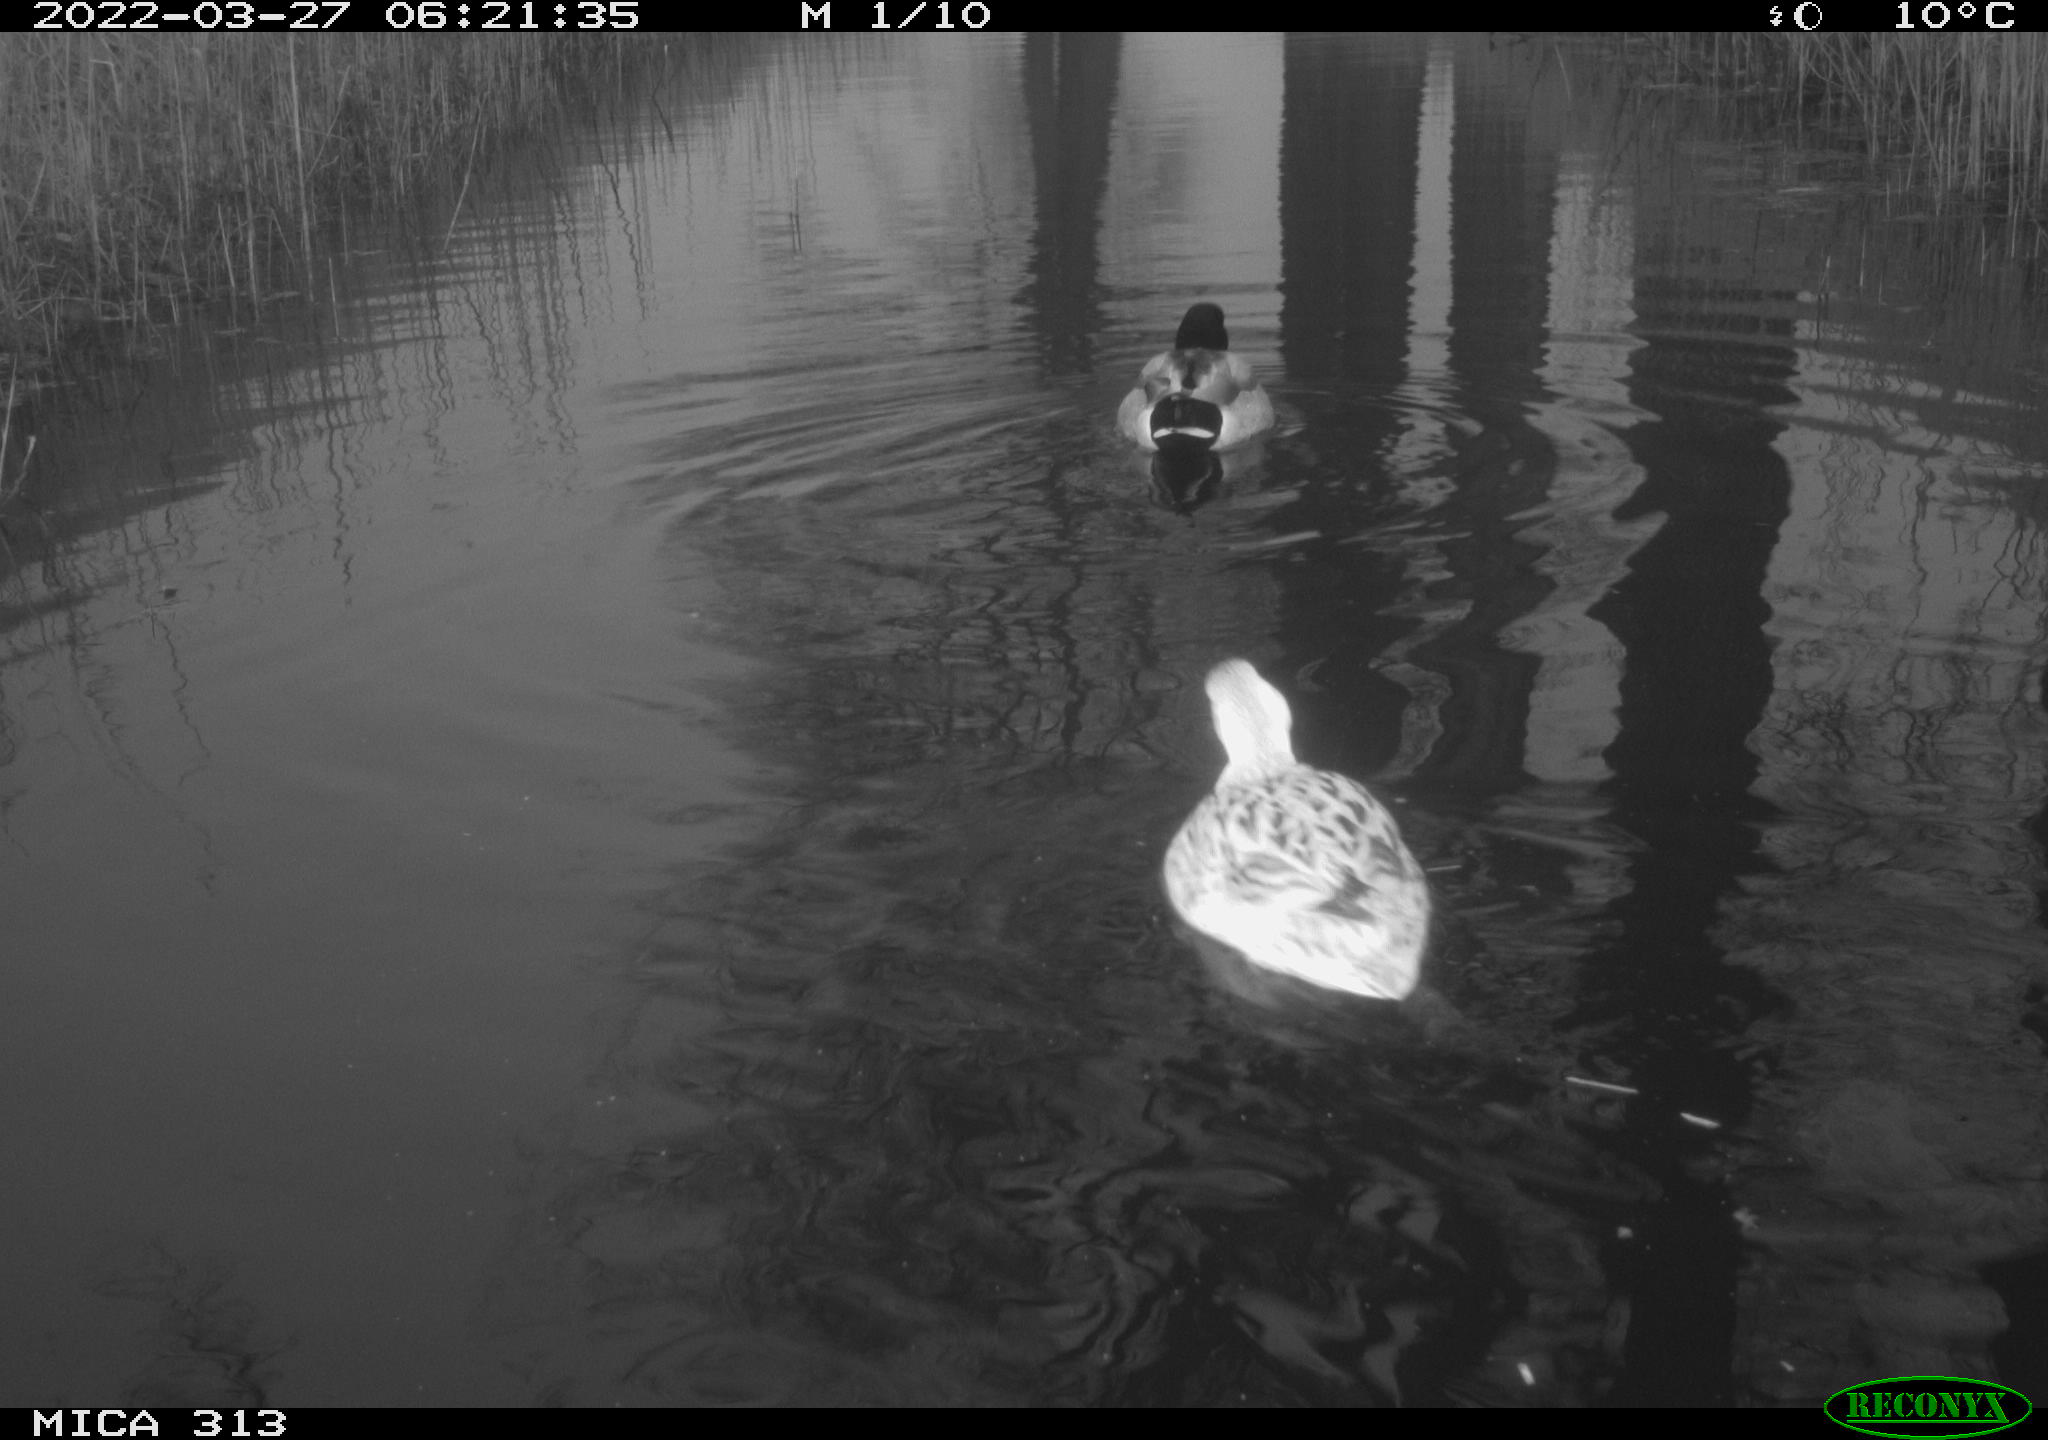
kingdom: Animalia
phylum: Chordata
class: Aves
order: Anseriformes
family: Anatidae
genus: Anas
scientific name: Anas platyrhynchos
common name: Mallard
